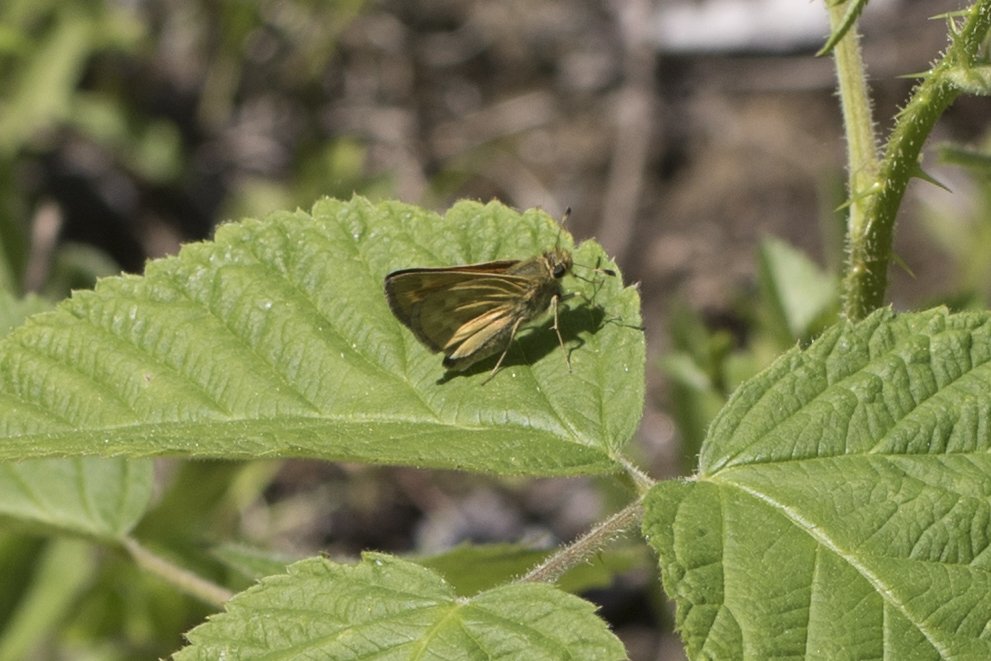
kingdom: Animalia
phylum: Arthropoda
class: Insecta
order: Lepidoptera
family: Hesperiidae
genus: Hesperia
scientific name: Hesperia sassacus
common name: Sassacus Skipper
